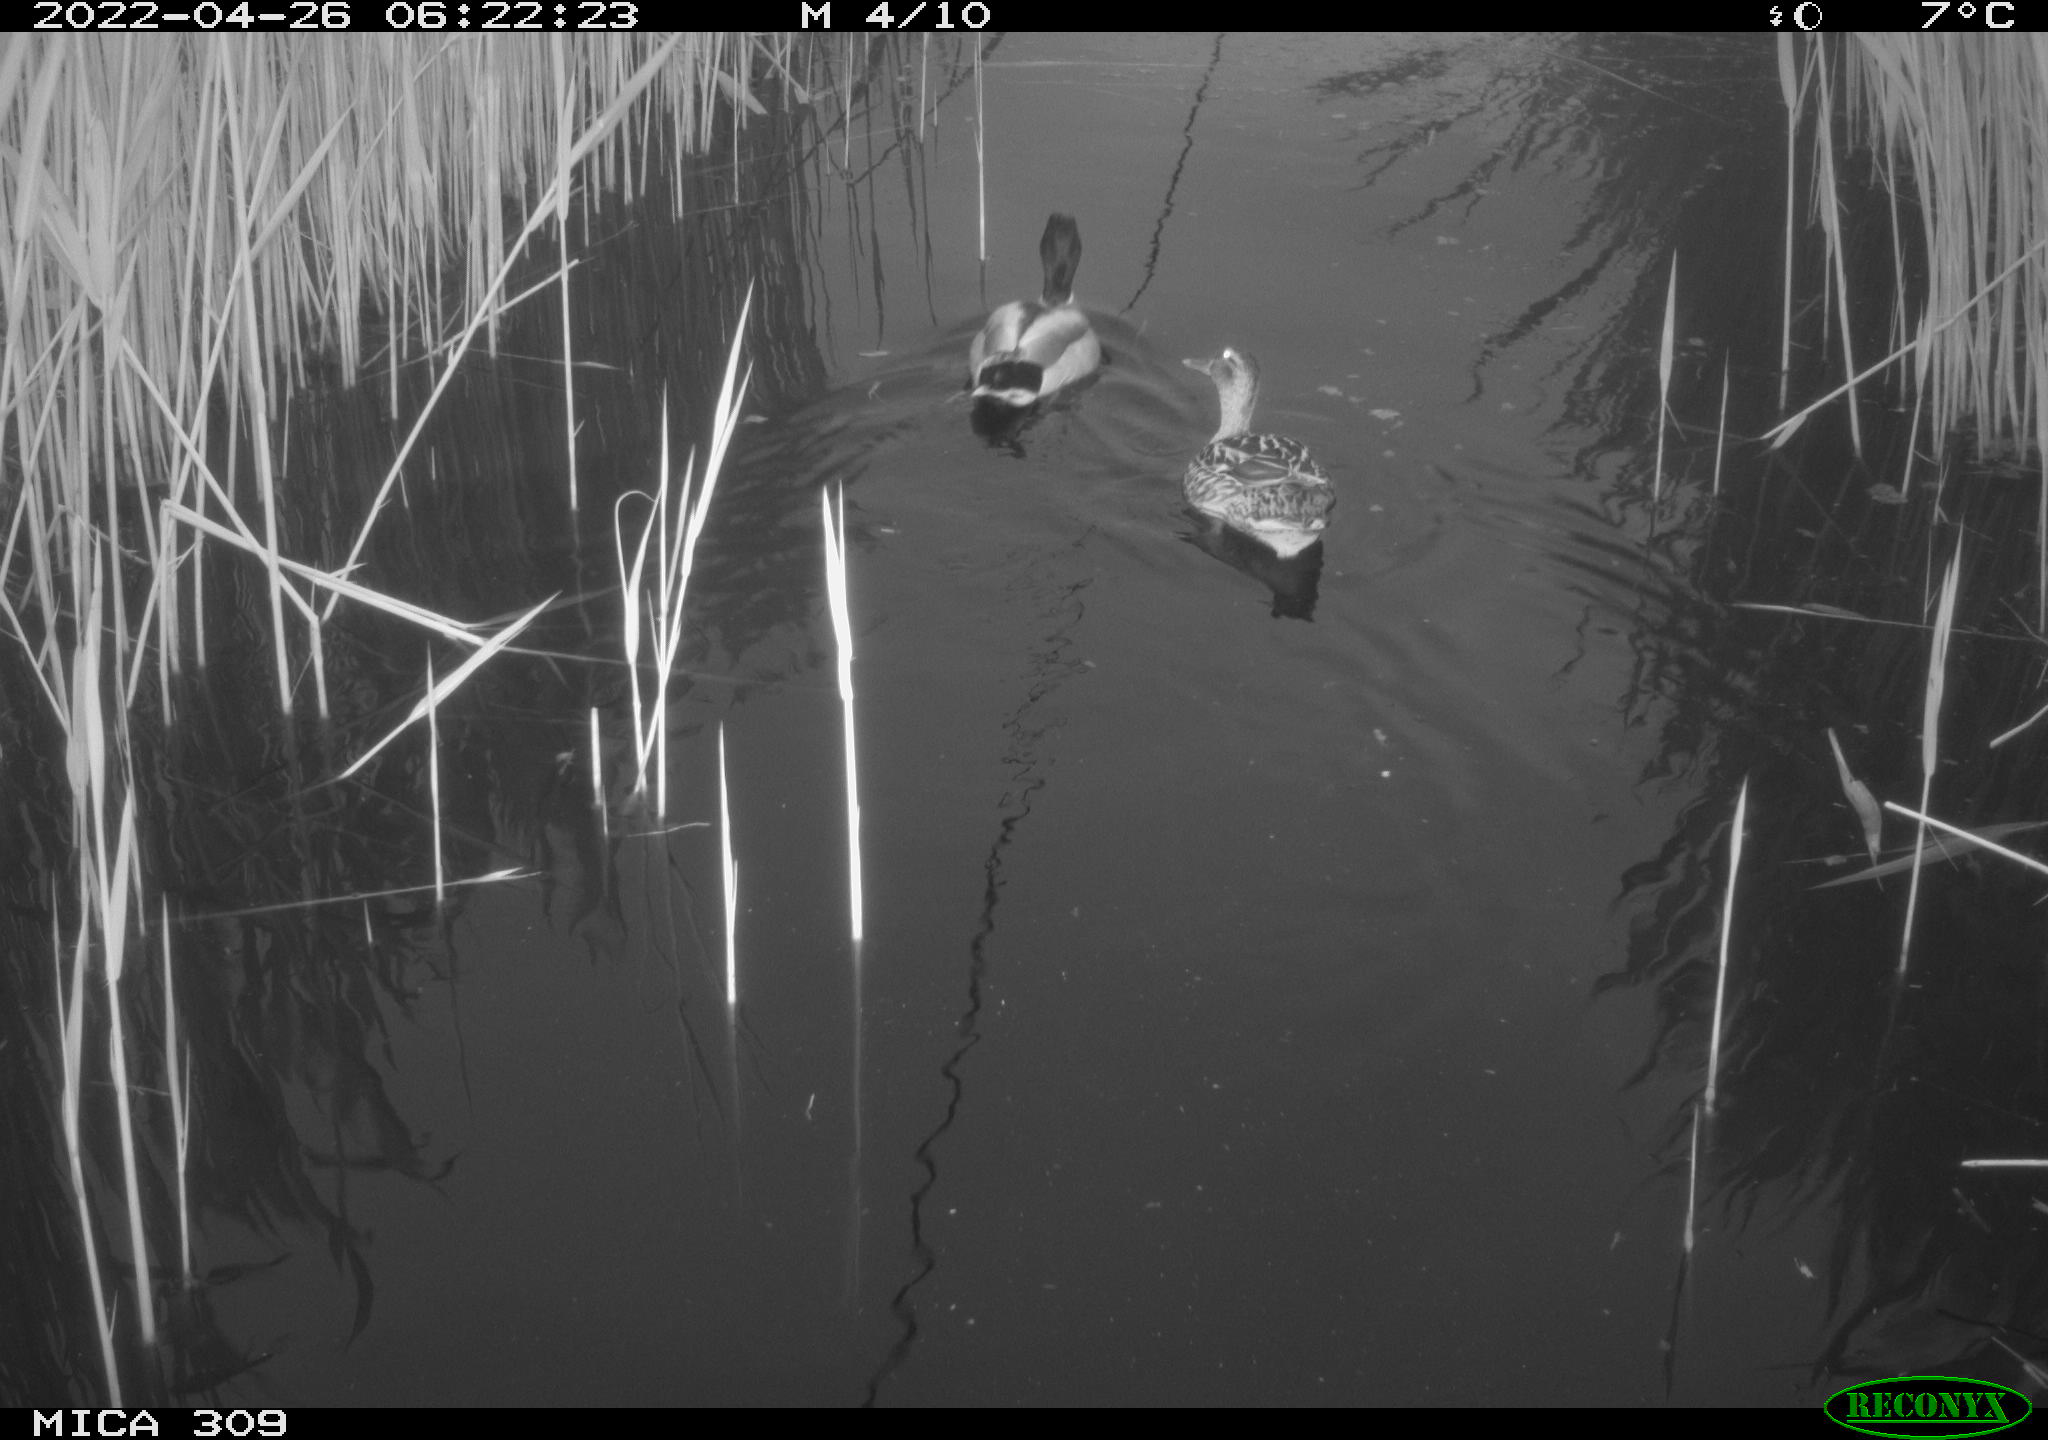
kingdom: Animalia
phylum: Chordata
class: Aves
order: Anseriformes
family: Anatidae
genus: Anas
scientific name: Anas platyrhynchos
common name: Mallard
